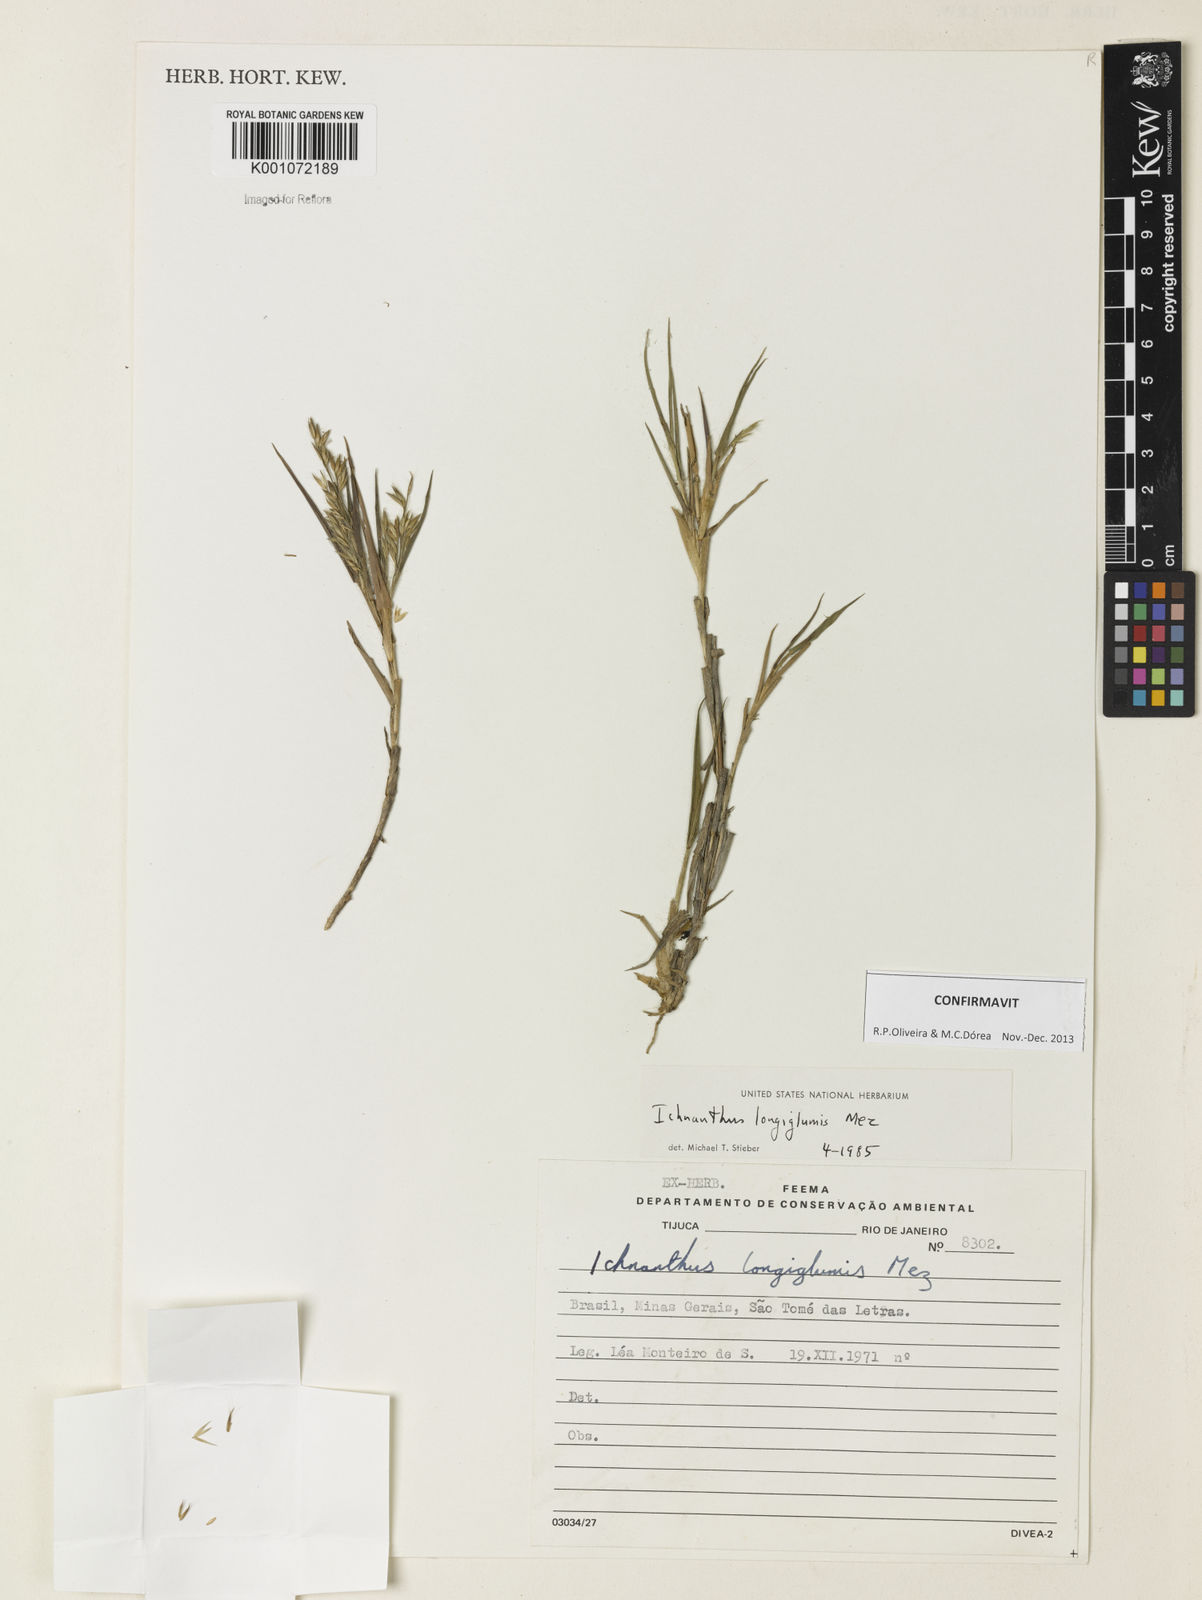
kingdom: Plantae
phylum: Tracheophyta
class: Liliopsida
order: Poales
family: Poaceae
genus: Ichnanthus
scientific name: Ichnanthus longiglumis
